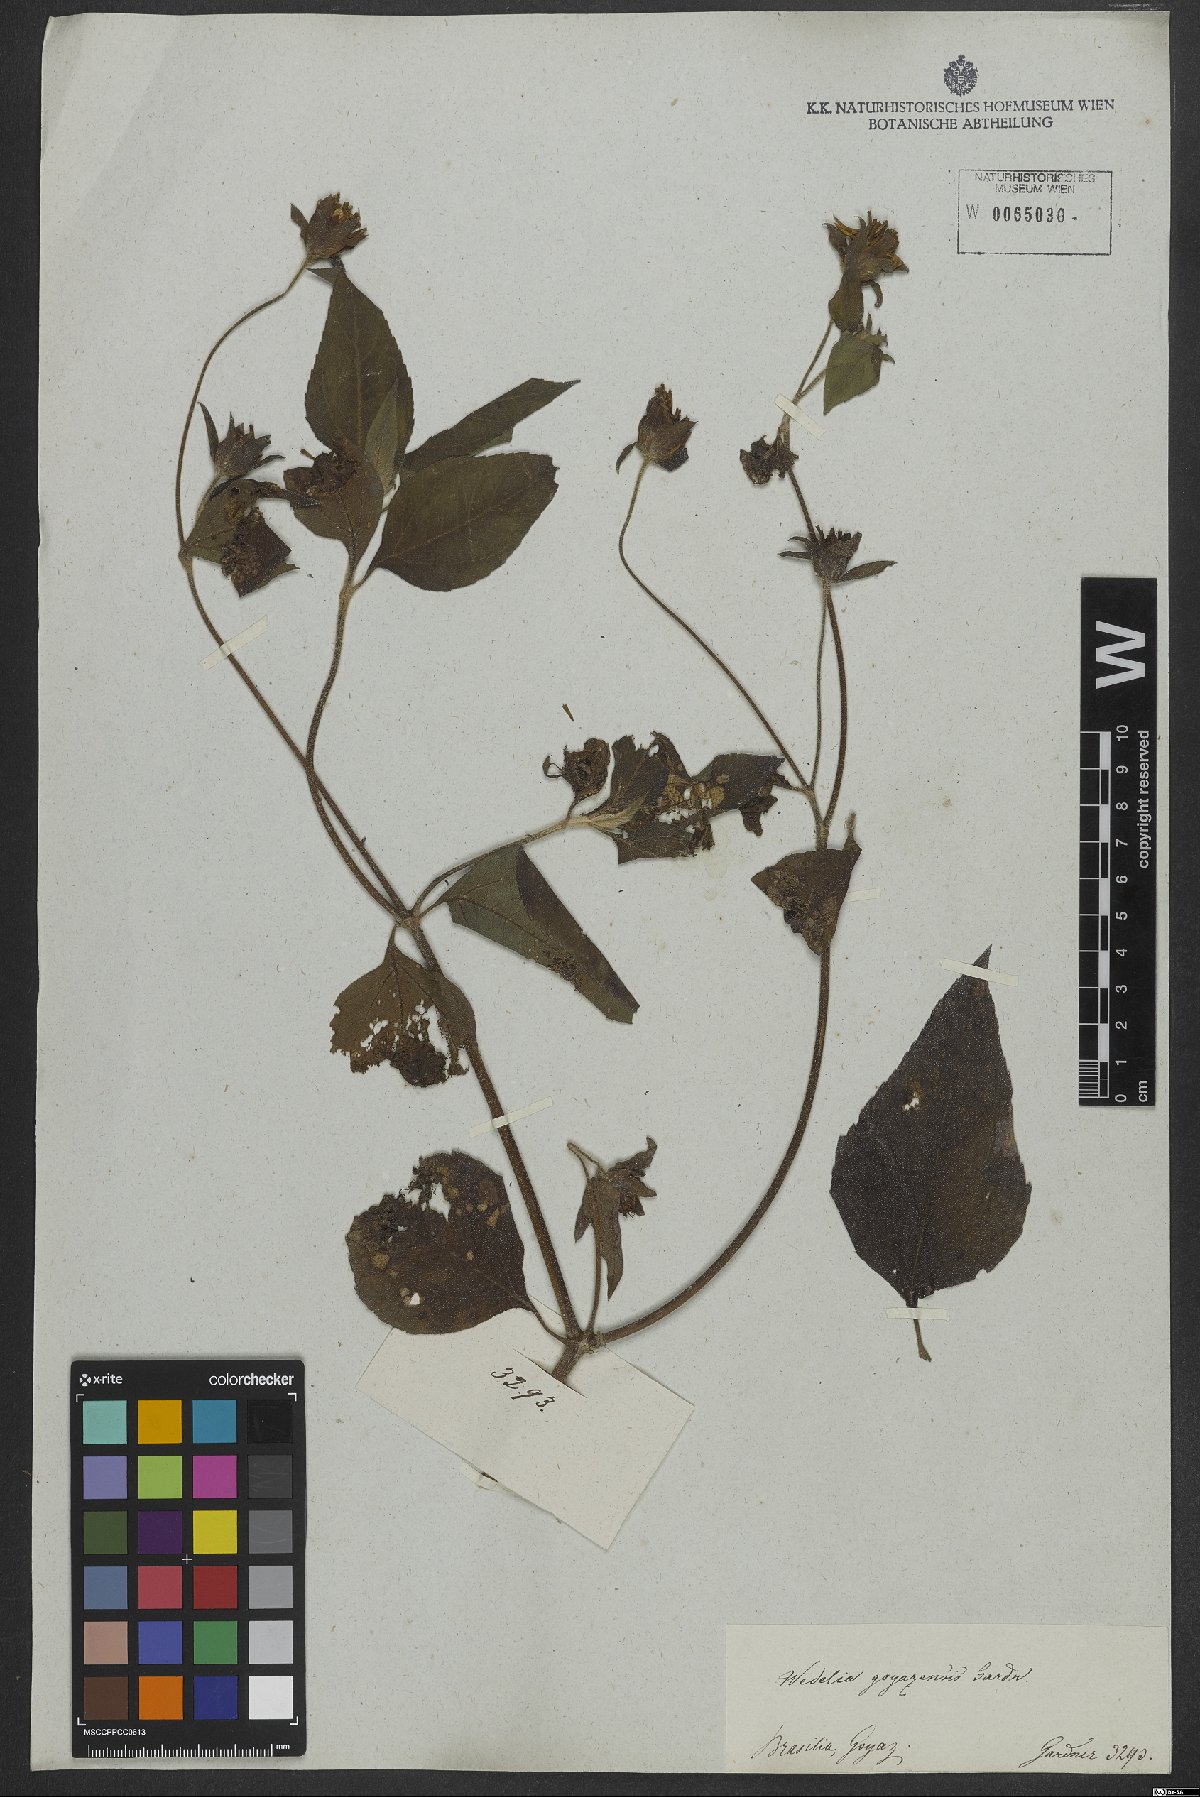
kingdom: Plantae
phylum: Tracheophyta
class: Magnoliopsida
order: Asterales
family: Asteraceae
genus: Wedelia
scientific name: Wedelia goyazensis
